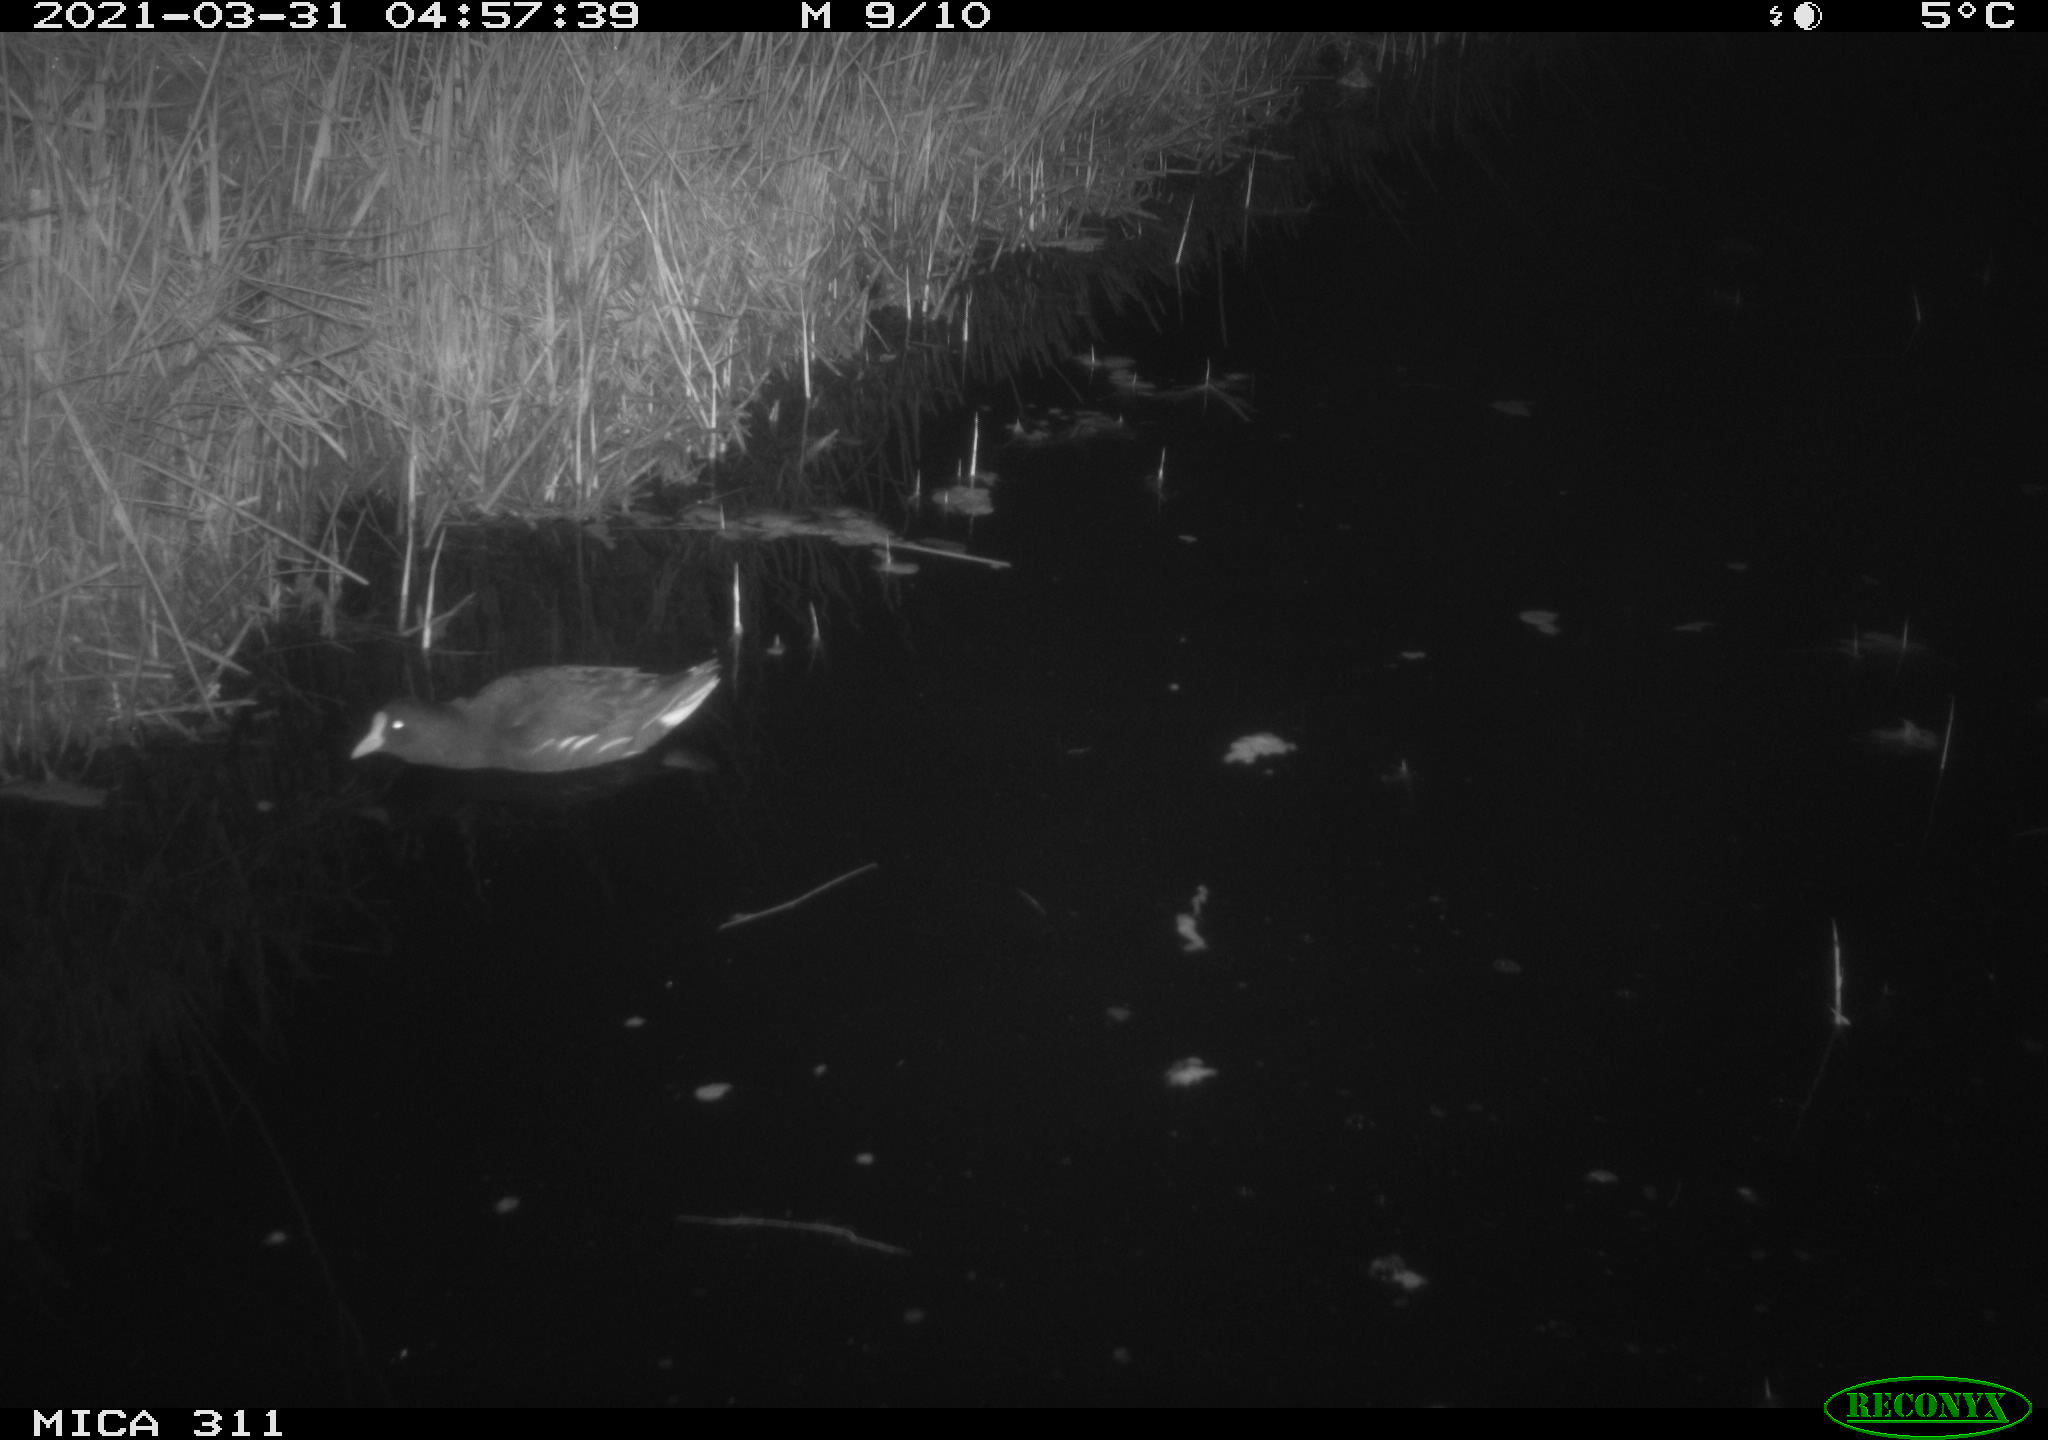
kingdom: Animalia
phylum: Chordata
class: Aves
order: Gruiformes
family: Rallidae
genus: Gallinula
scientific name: Gallinula chloropus
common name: Common moorhen
